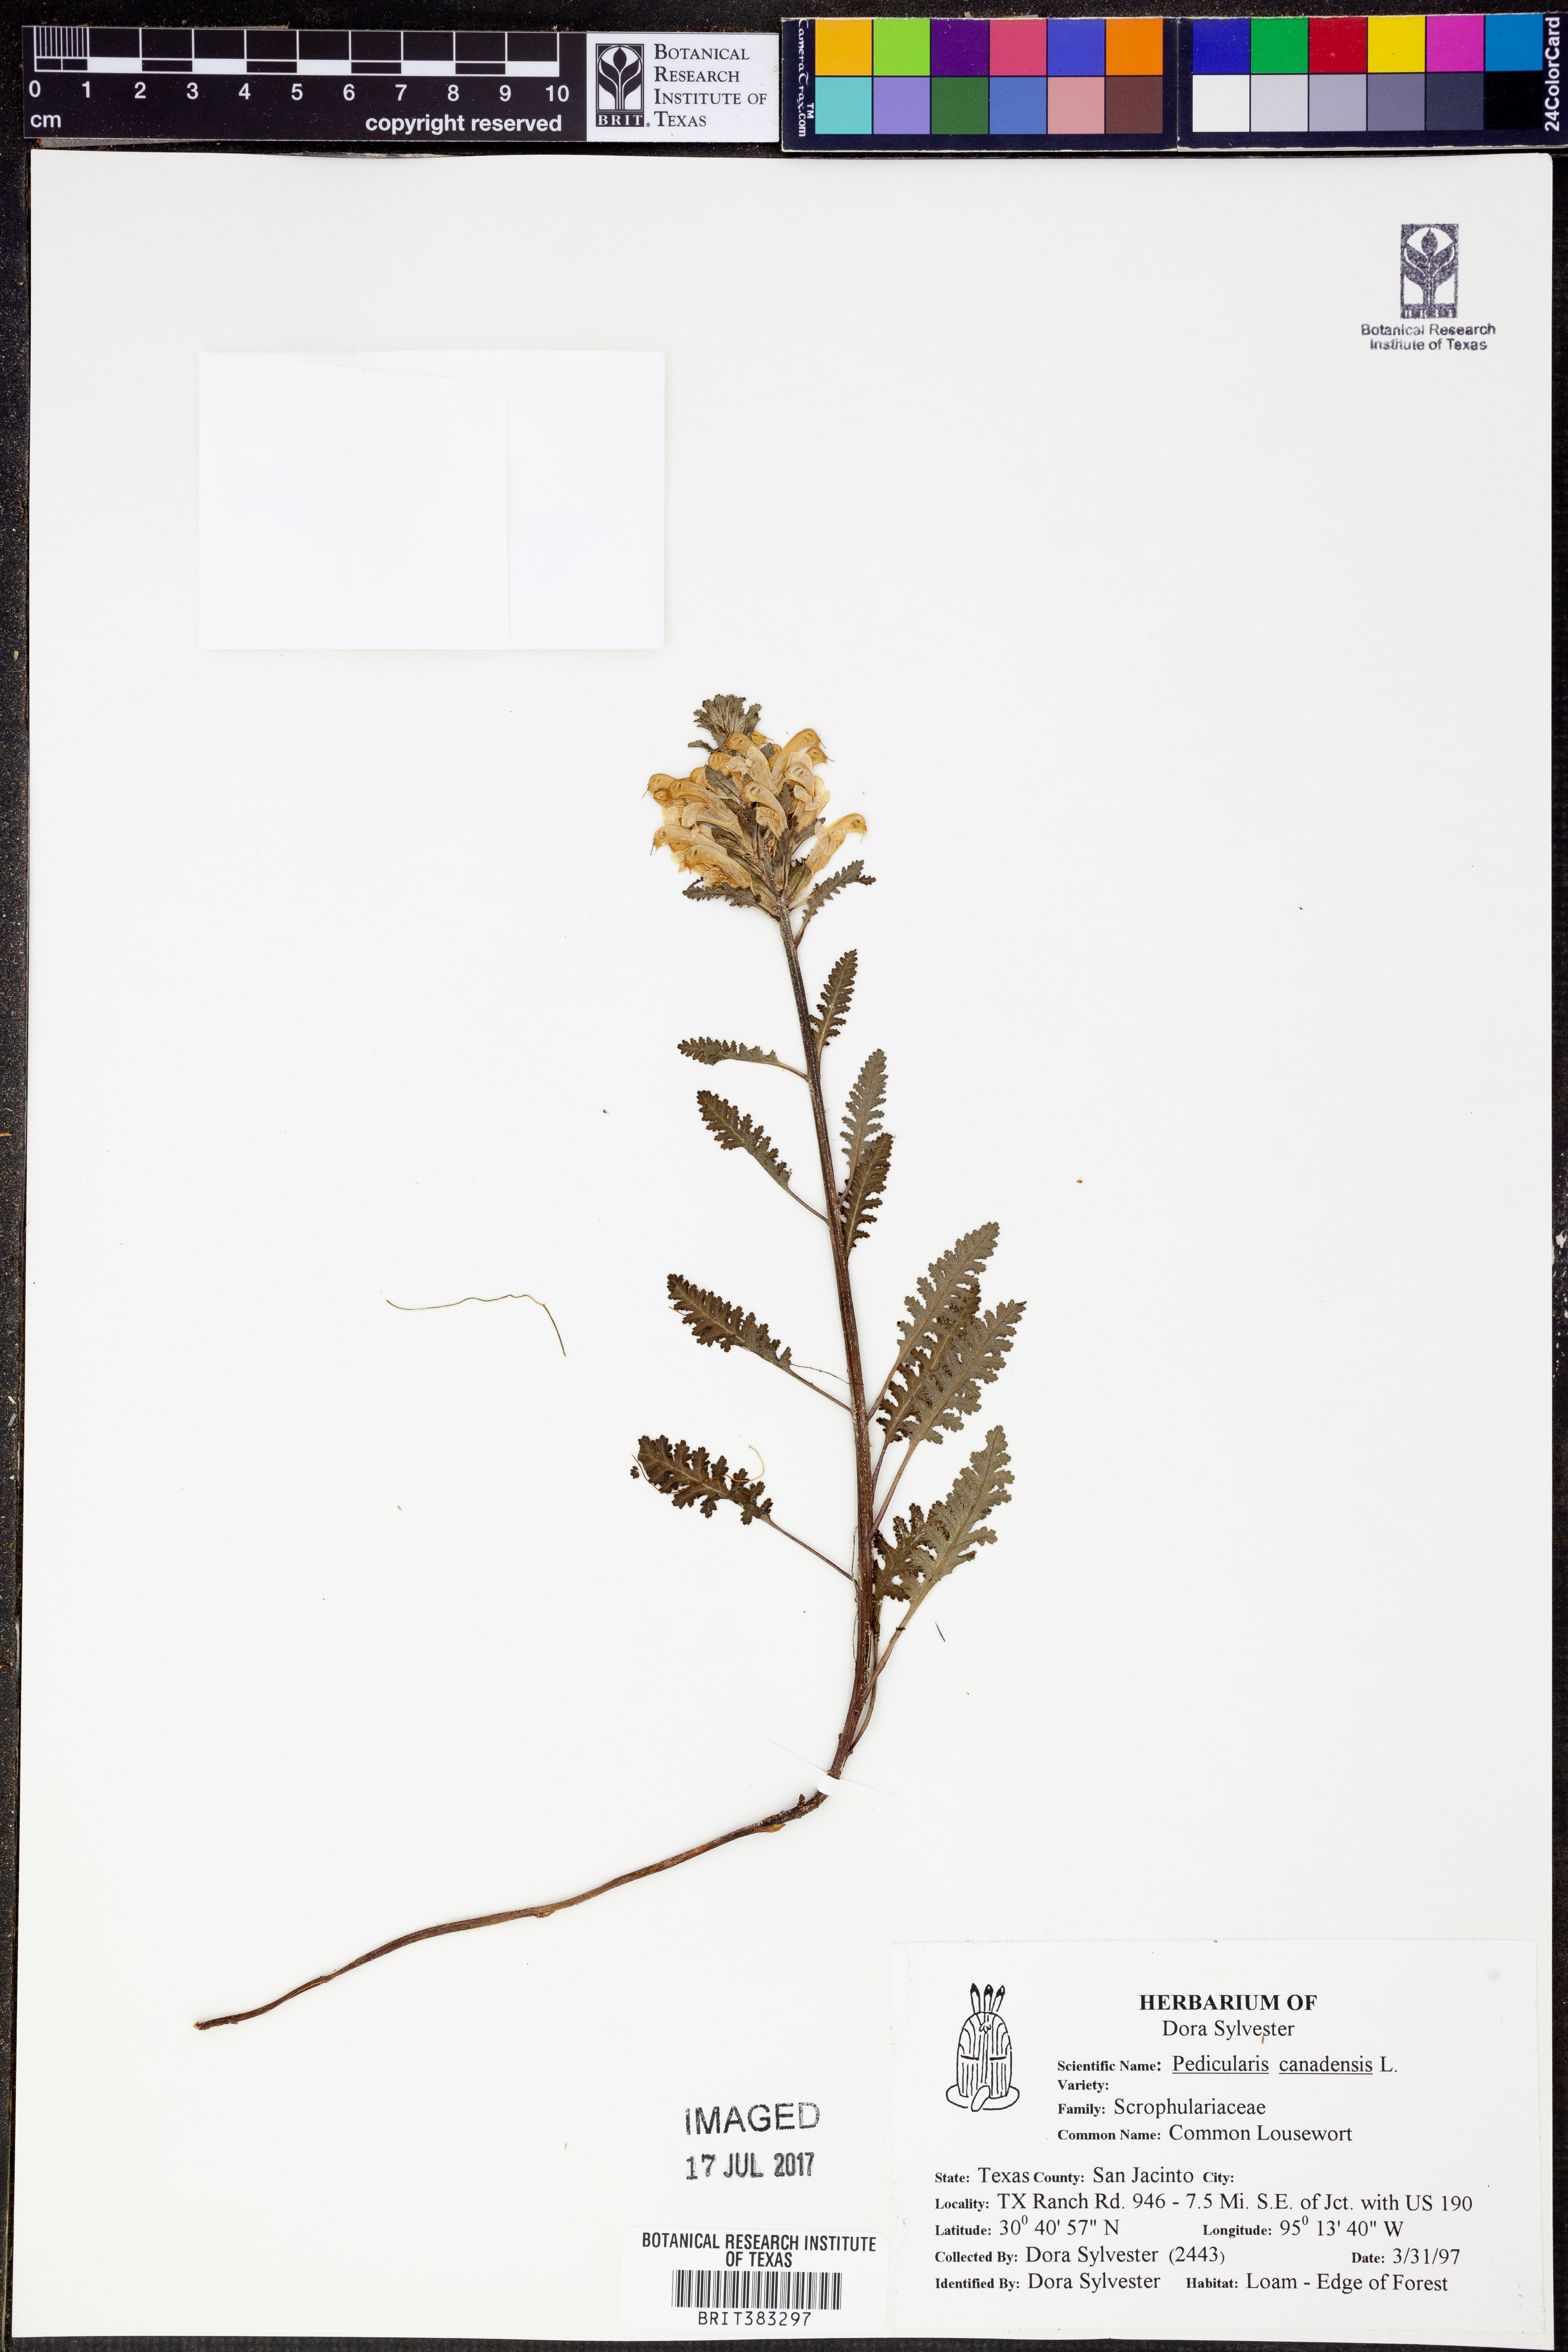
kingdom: Plantae
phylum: Tracheophyta
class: Magnoliopsida
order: Lamiales
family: Orobanchaceae
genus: Pedicularis
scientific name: Pedicularis canadensis
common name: Early lousewort
